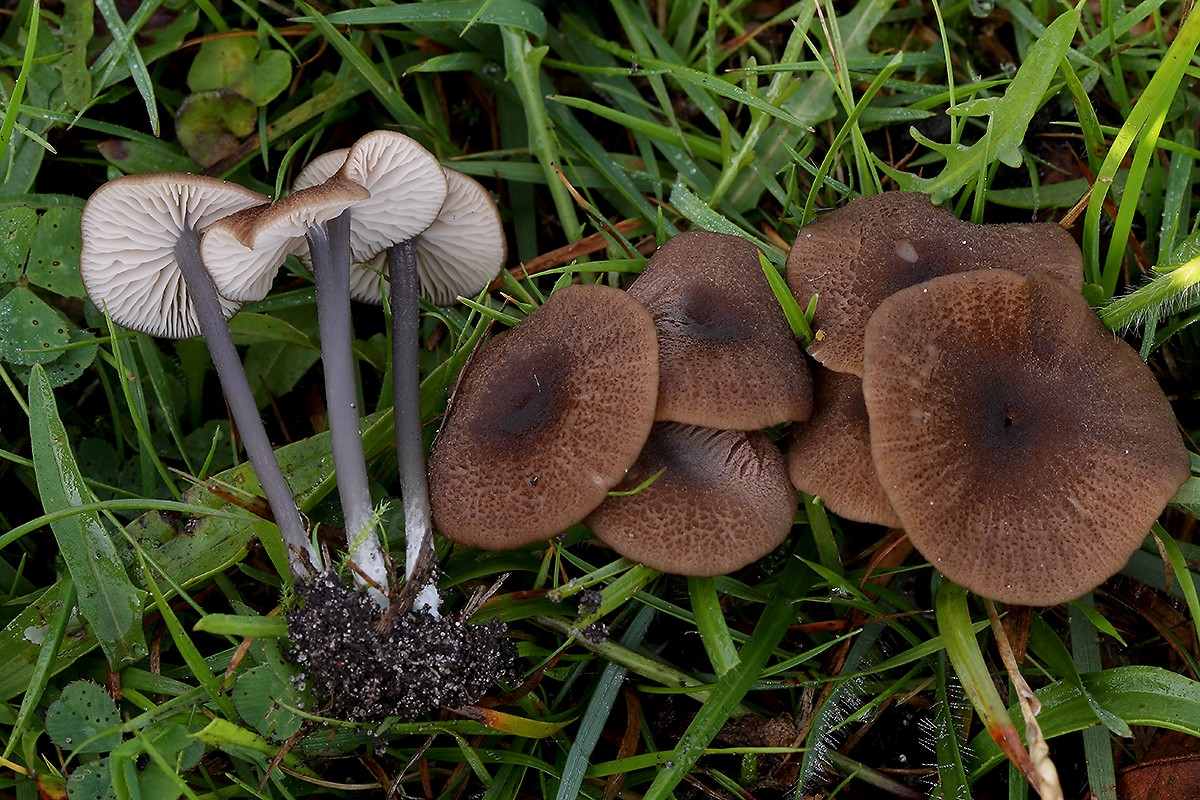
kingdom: Fungi
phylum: Basidiomycota
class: Agaricomycetes
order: Agaricales
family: Entolomataceae
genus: Entoloma
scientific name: Entoloma asprellum
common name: ru rødblad
